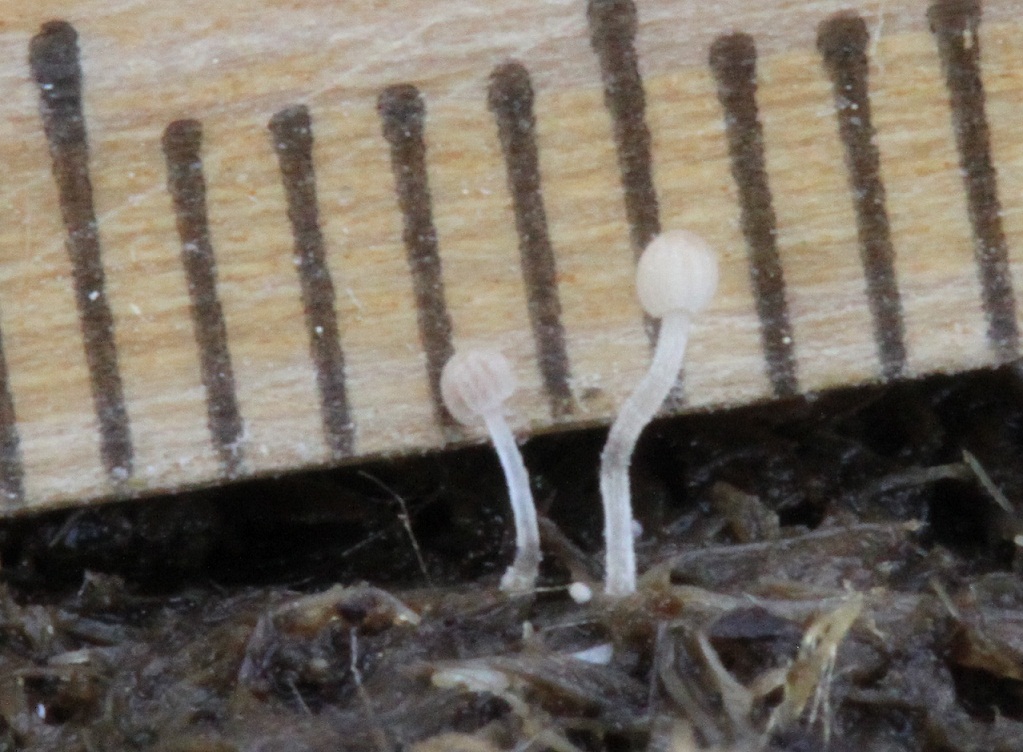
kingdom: Fungi
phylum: Basidiomycota
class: Agaricomycetes
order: Agaricales
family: Psathyrellaceae
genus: Tulosesus
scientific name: Tulosesus pellucidus
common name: skær blækhat
